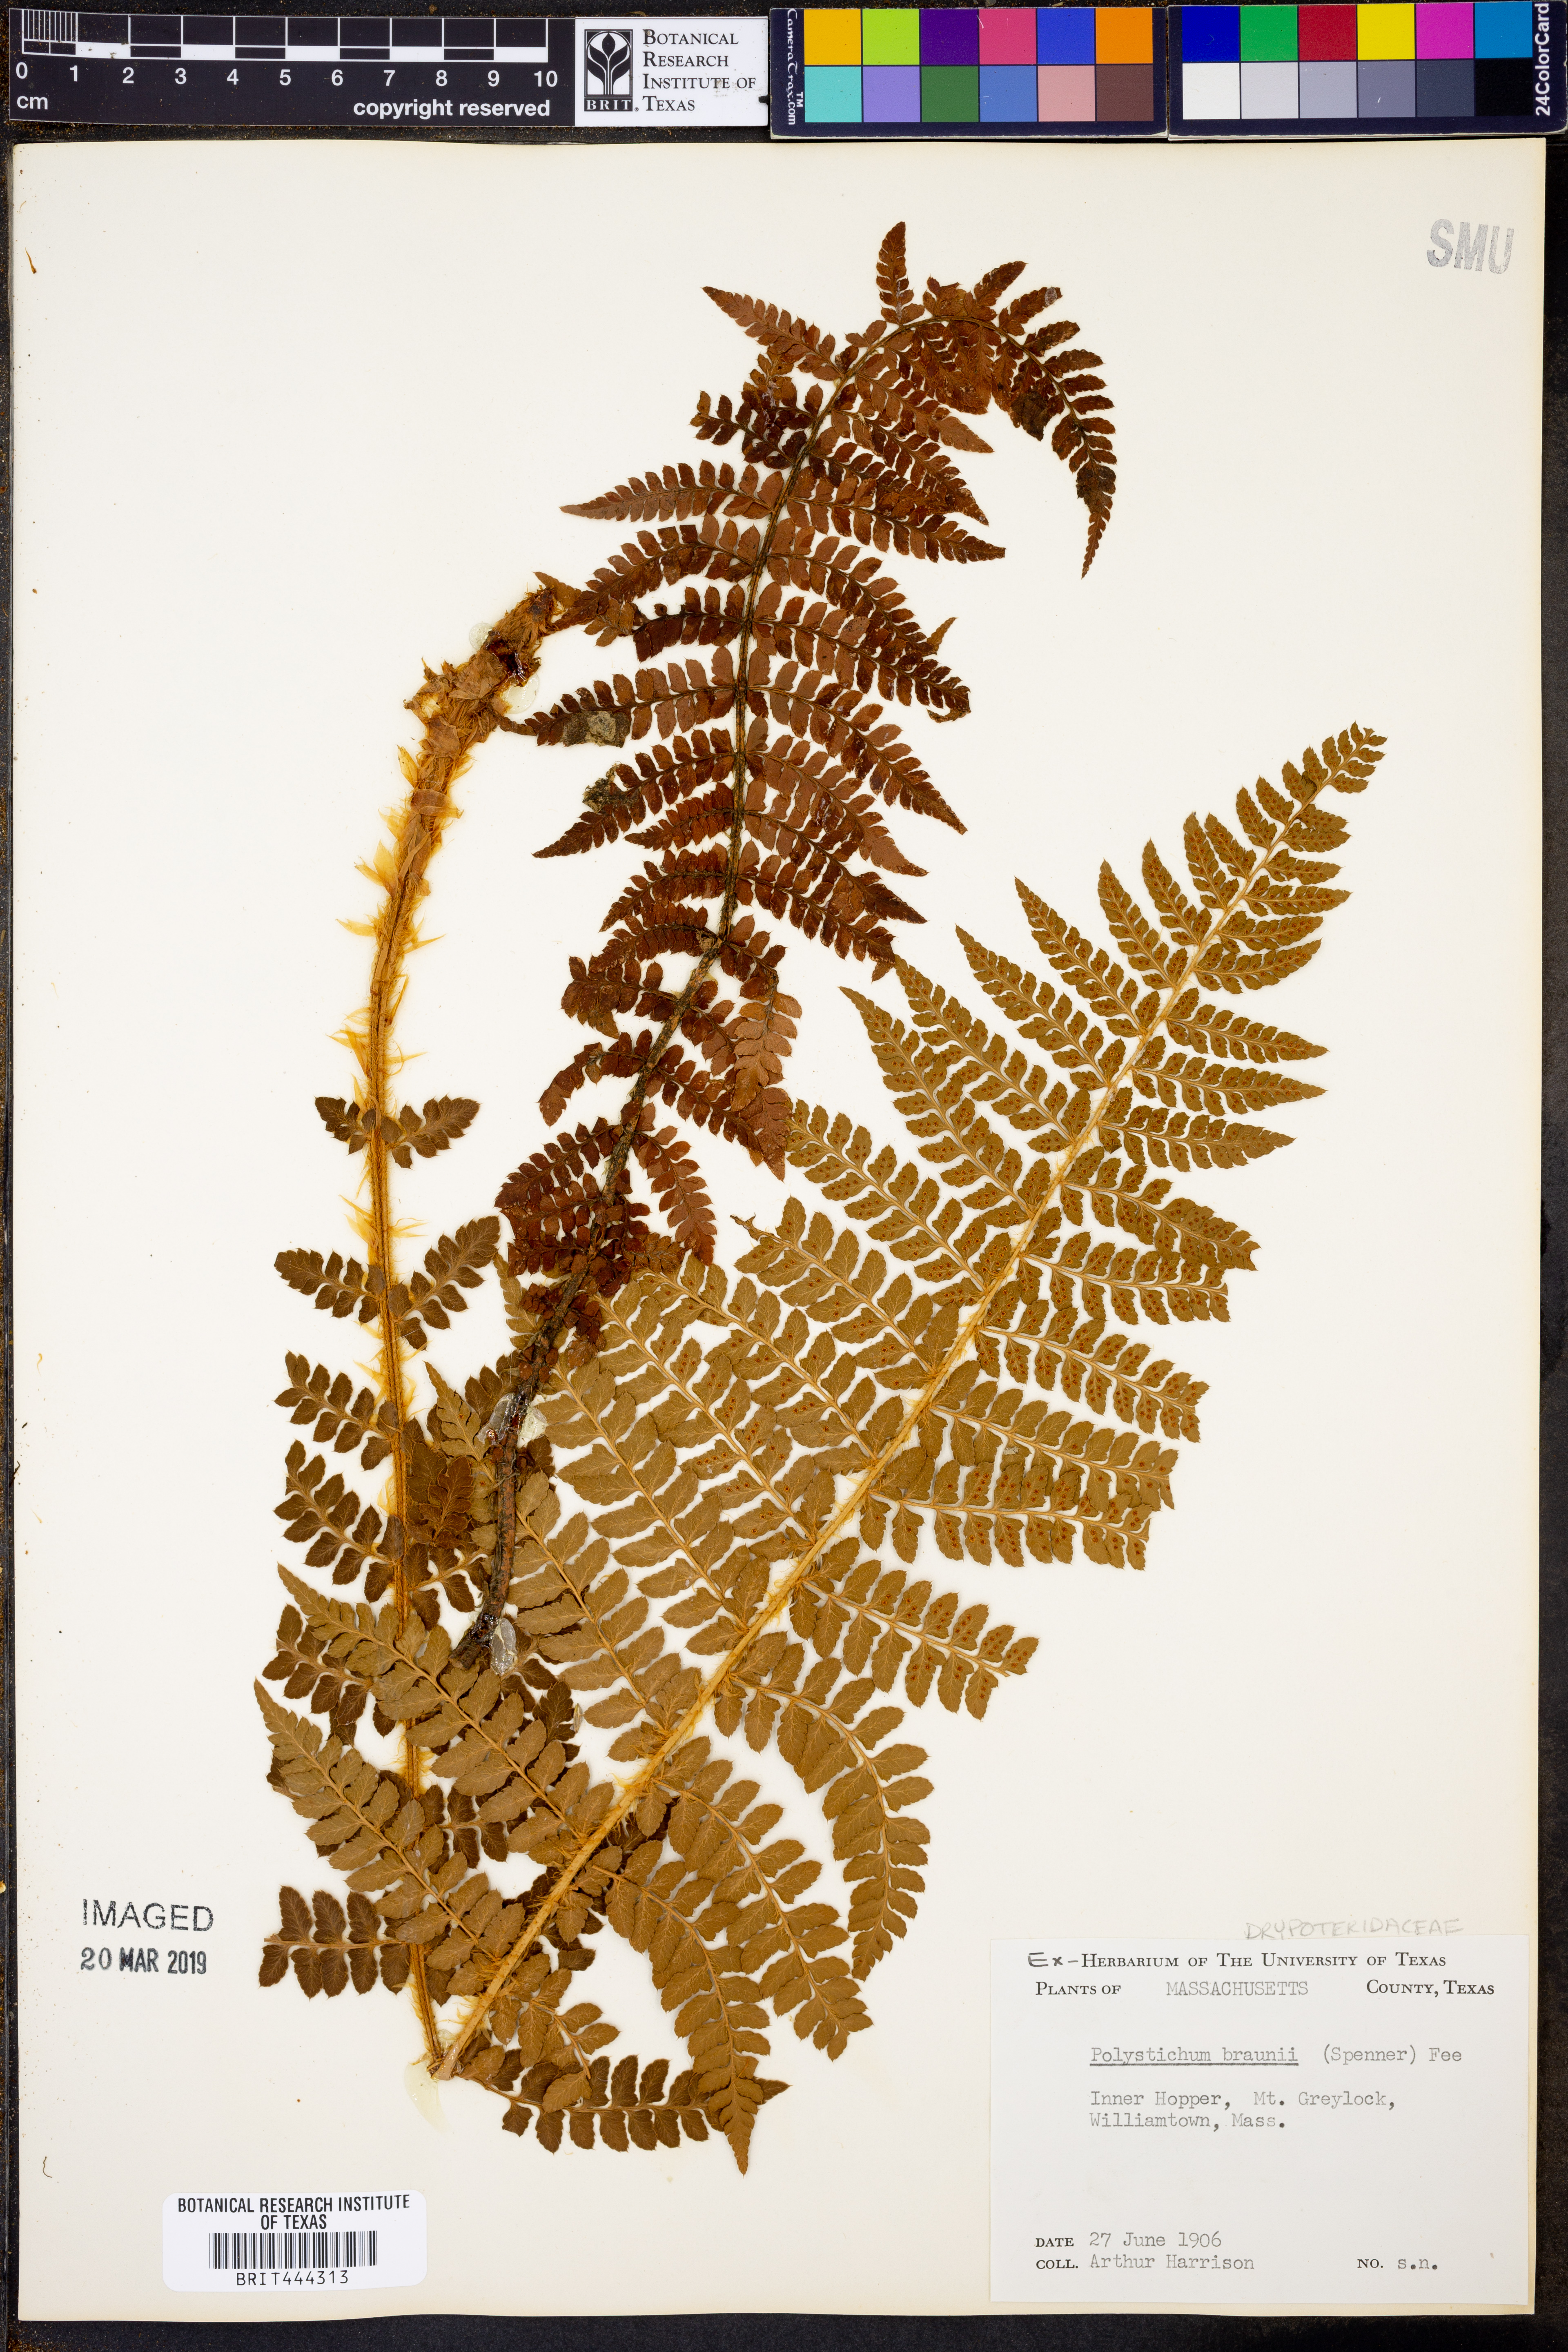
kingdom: Plantae
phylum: Tracheophyta
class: Polypodiopsida
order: Polypodiales
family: Dryopteridaceae
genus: Polystichum
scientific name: Polystichum braunii
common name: Braun's holly fern
